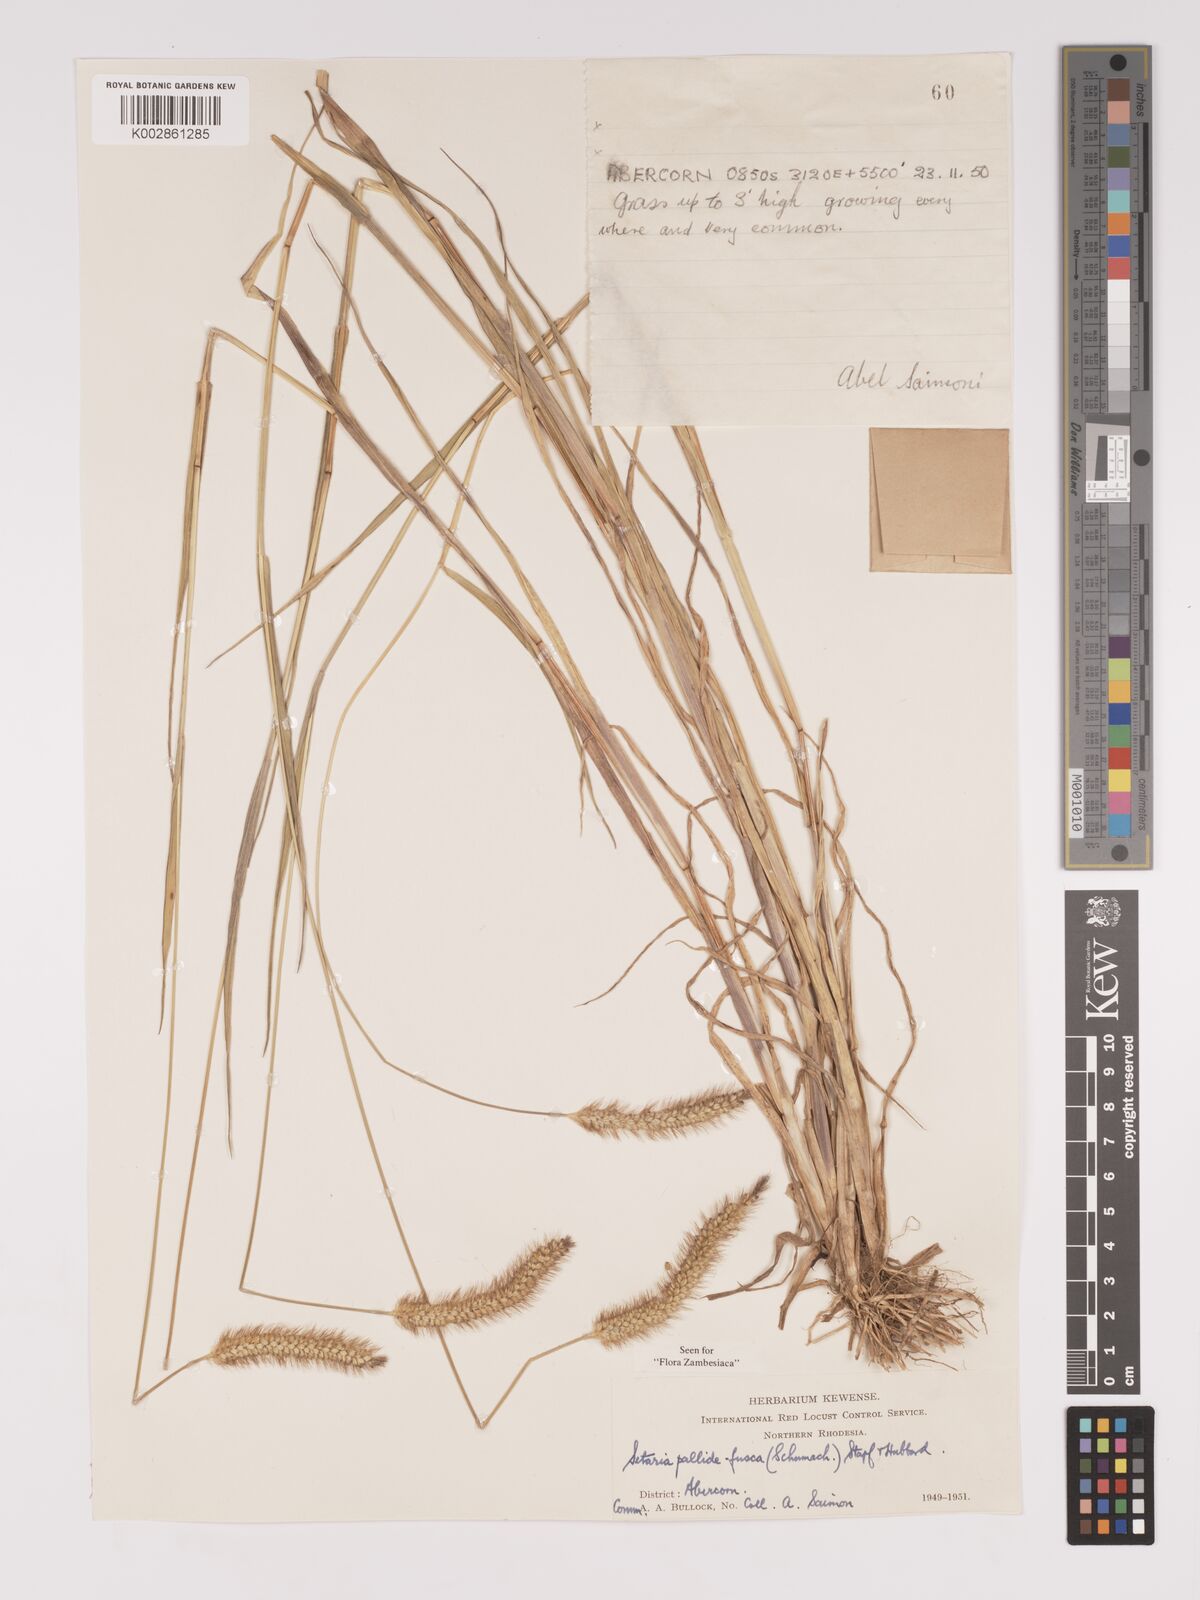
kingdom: Plantae
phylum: Tracheophyta
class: Liliopsida
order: Poales
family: Poaceae
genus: Setaria
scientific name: Setaria pumila
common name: Yellow bristle-grass
